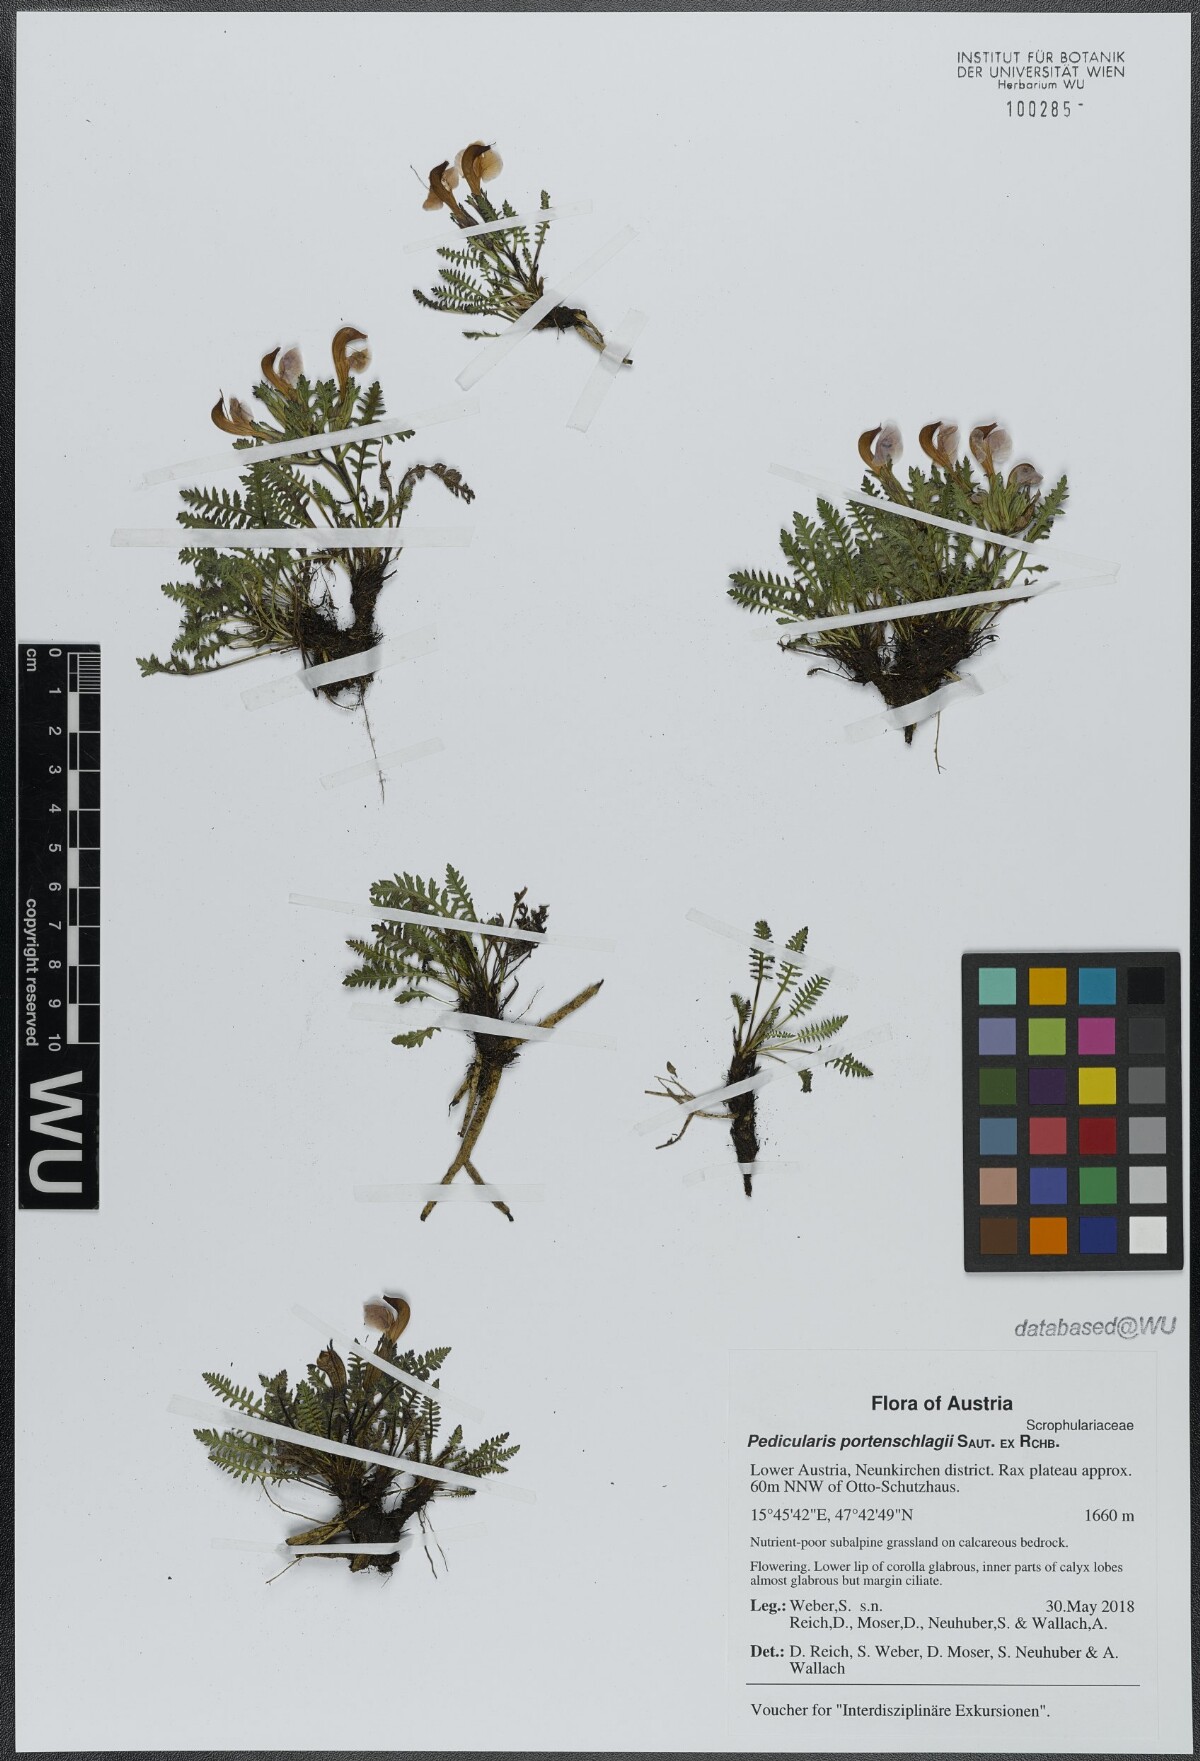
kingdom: Plantae
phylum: Tracheophyta
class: Magnoliopsida
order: Lamiales
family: Orobanchaceae
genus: Pedicularis
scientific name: Pedicularis portenschlagii
